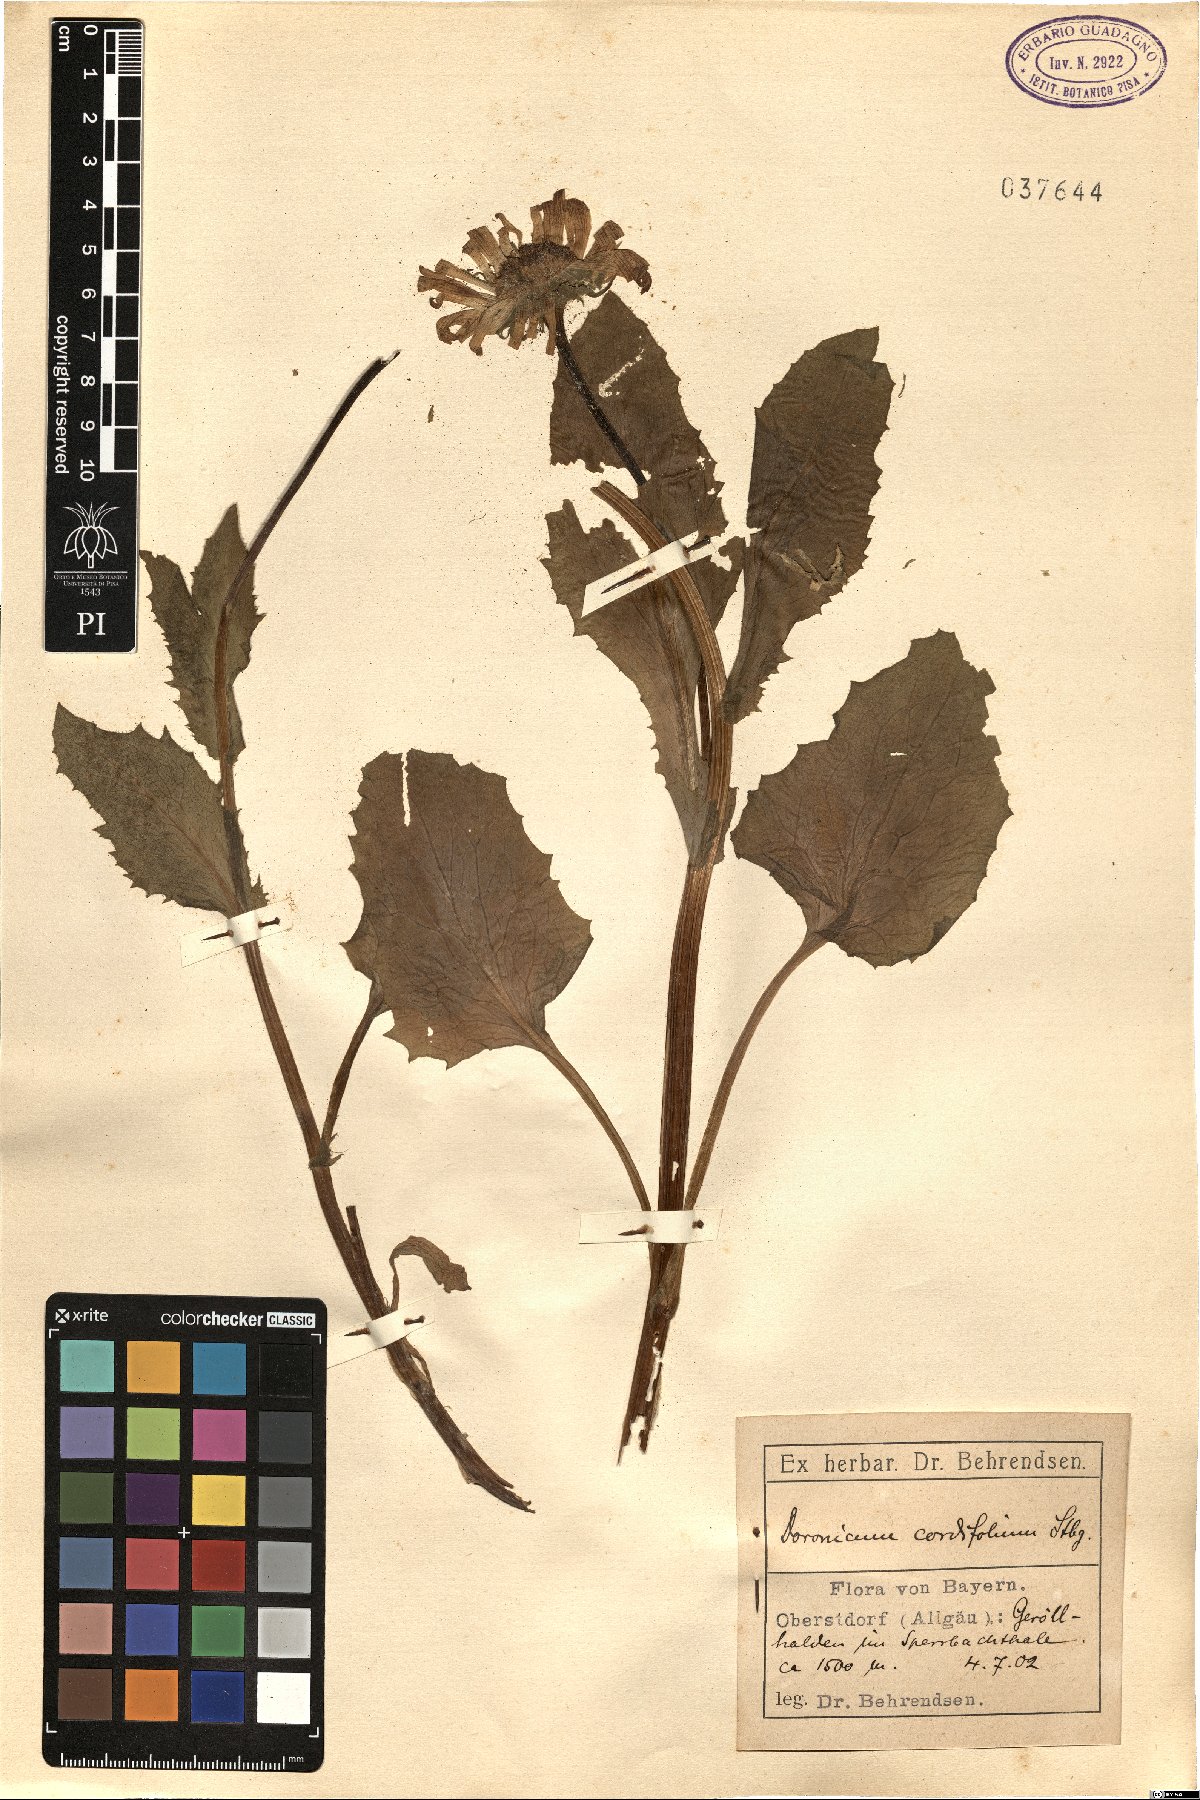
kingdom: Plantae
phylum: Tracheophyta
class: Magnoliopsida
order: Asterales
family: Asteraceae
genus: Doronicum
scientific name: Doronicum columnae
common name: Eastern leopard's-bane
